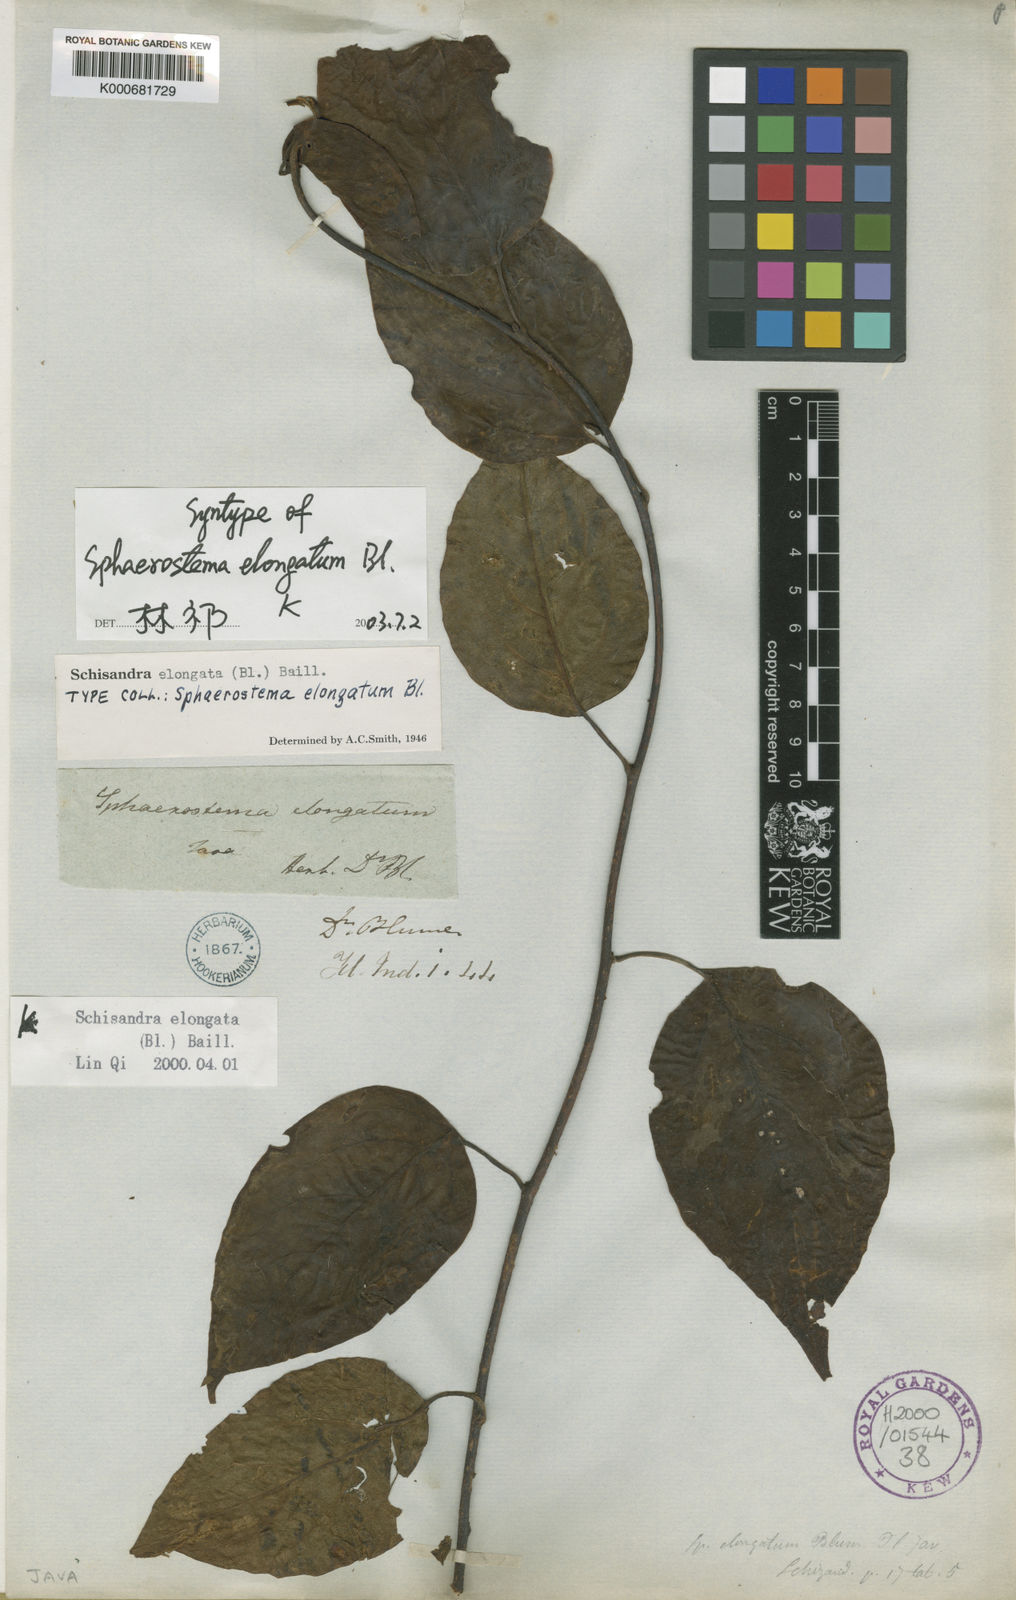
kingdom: Plantae
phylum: Tracheophyta
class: Magnoliopsida
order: Austrobaileyales
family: Schisandraceae
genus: Schisandra
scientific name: Schisandra neglecta
